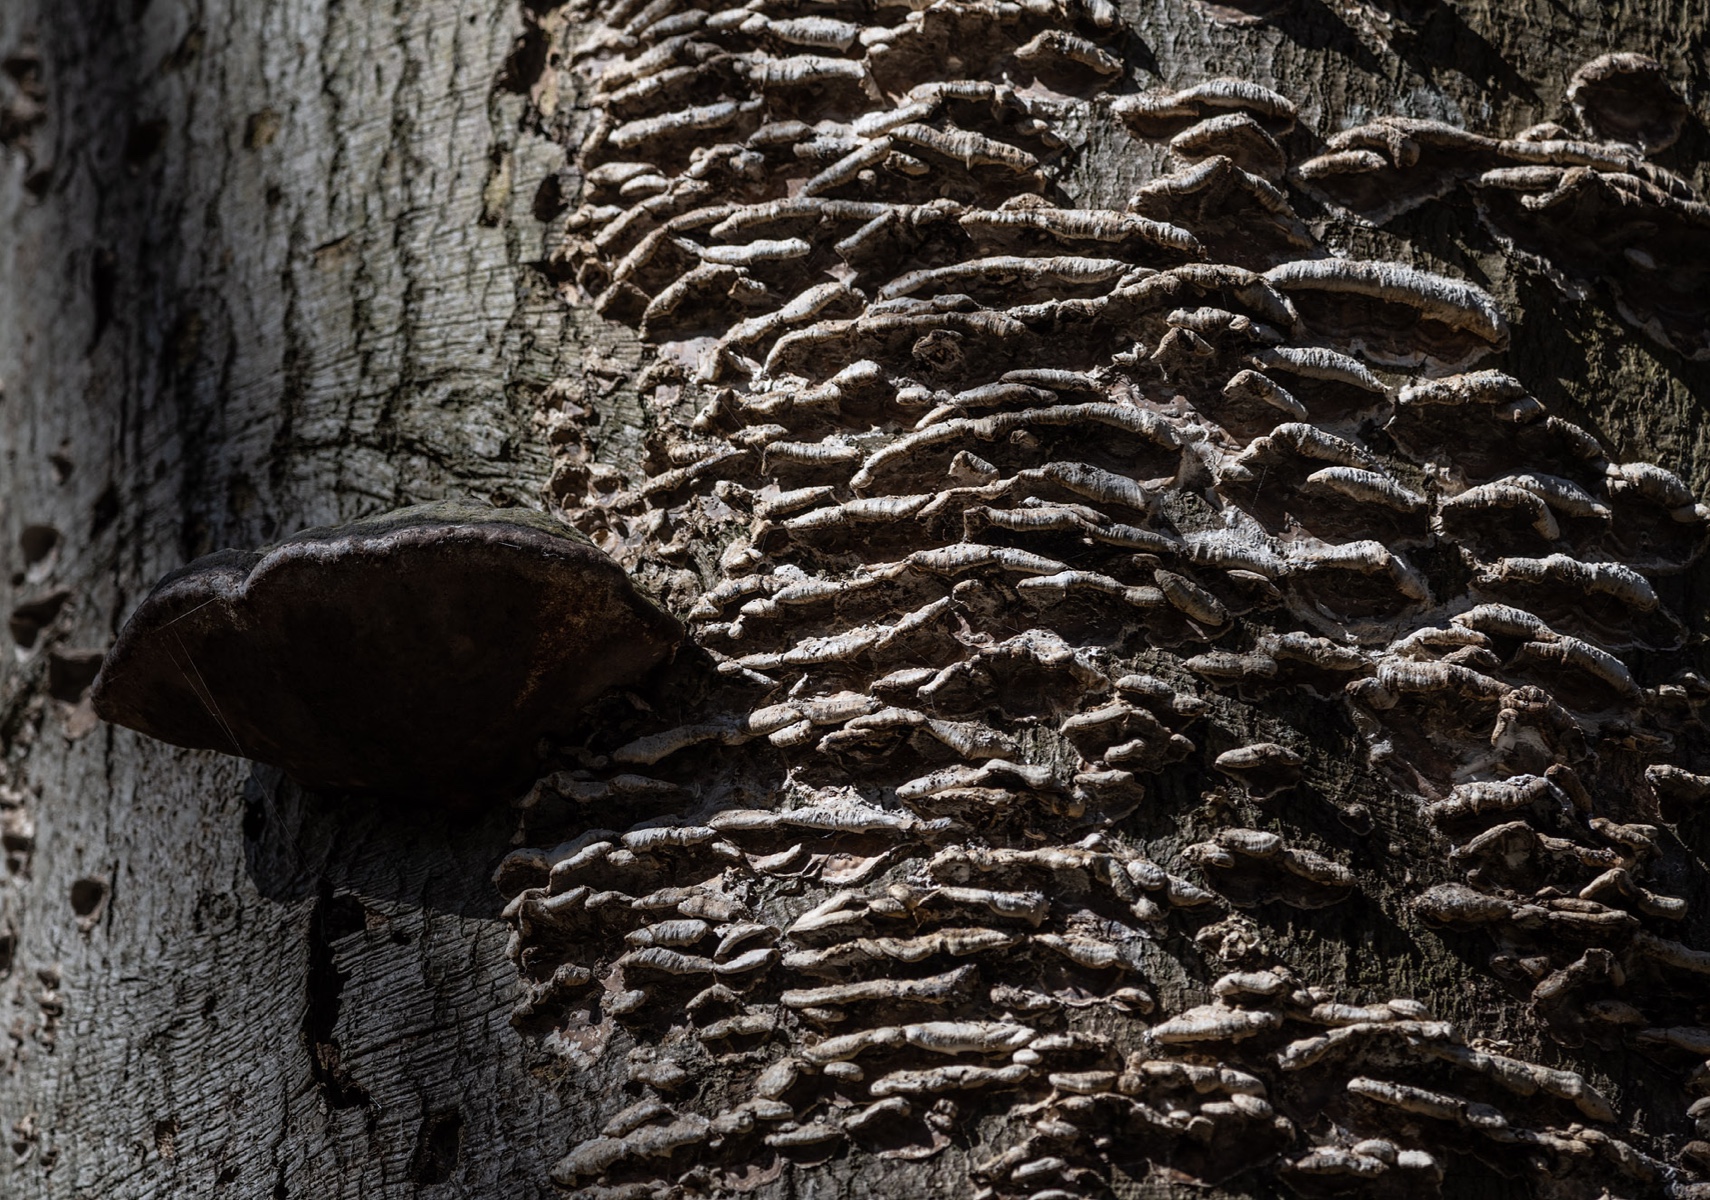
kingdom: Fungi
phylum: Basidiomycota
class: Agaricomycetes
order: Polyporales
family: Phanerochaetaceae
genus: Bjerkandera
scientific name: Bjerkandera adusta
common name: sveden sodporesvamp
